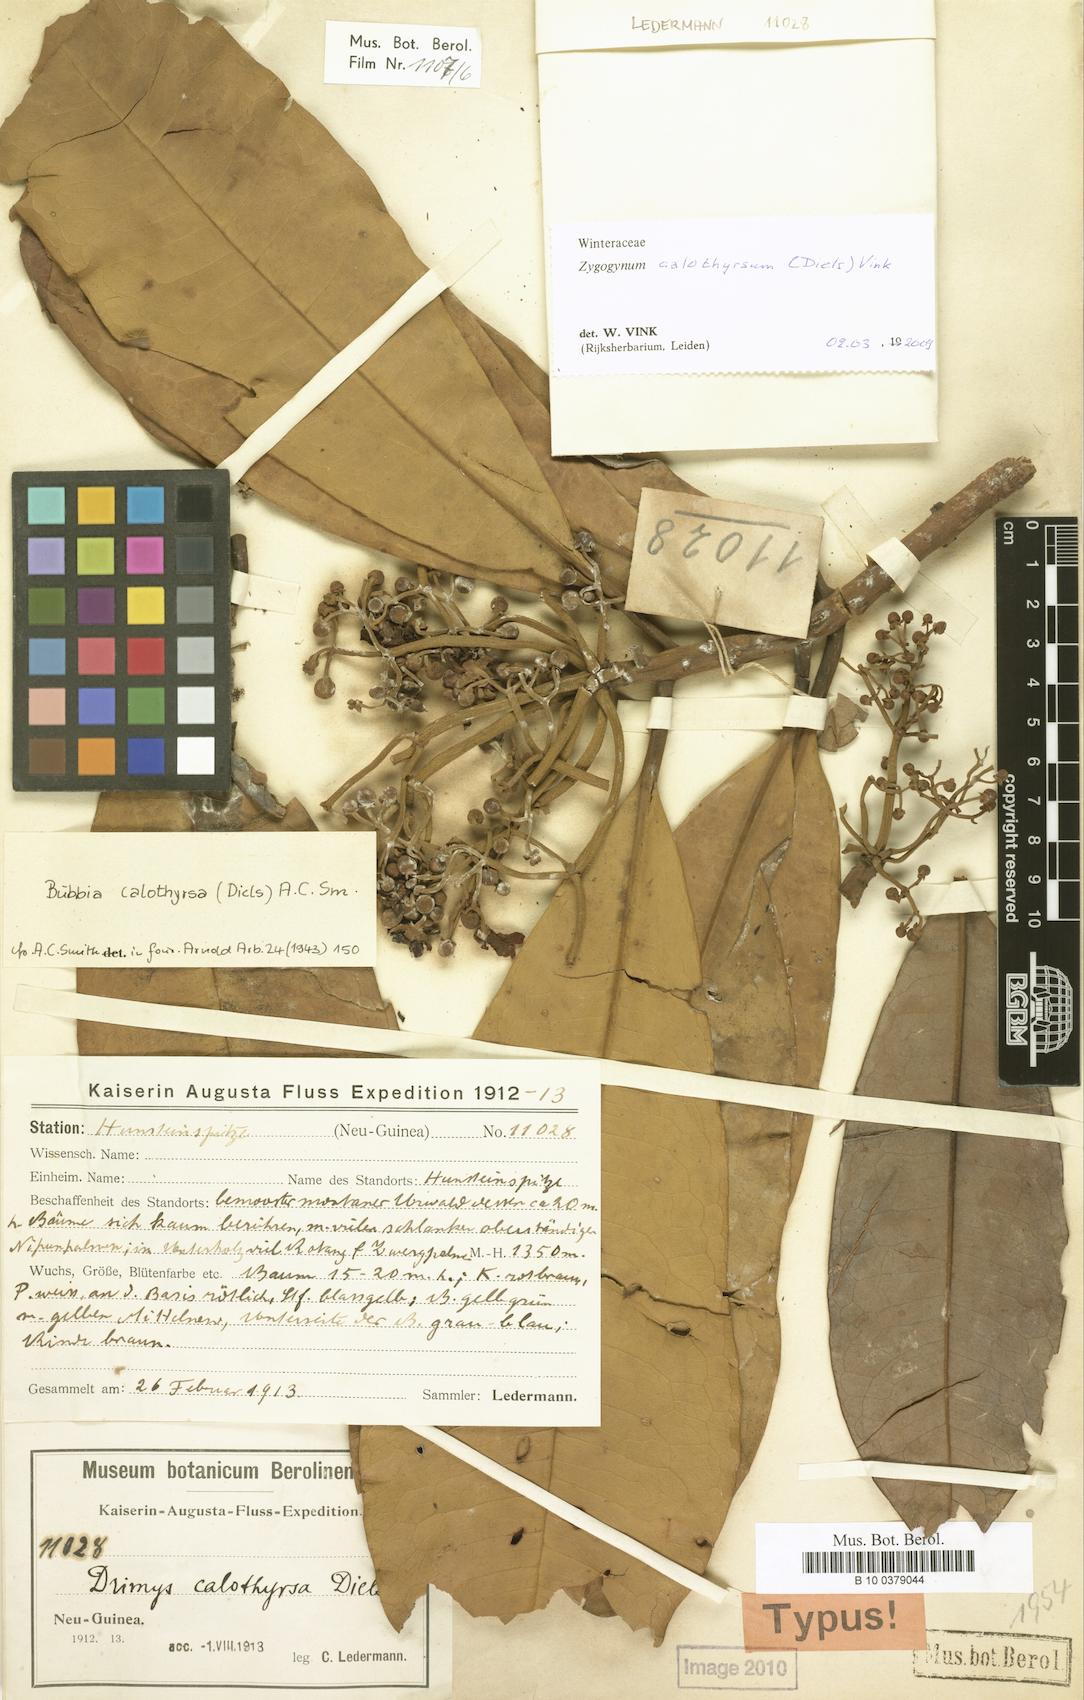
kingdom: Plantae
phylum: Tracheophyta
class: Magnoliopsida
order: Canellales
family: Winteraceae
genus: Zygogynum
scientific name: Zygogynum calothyrsum
